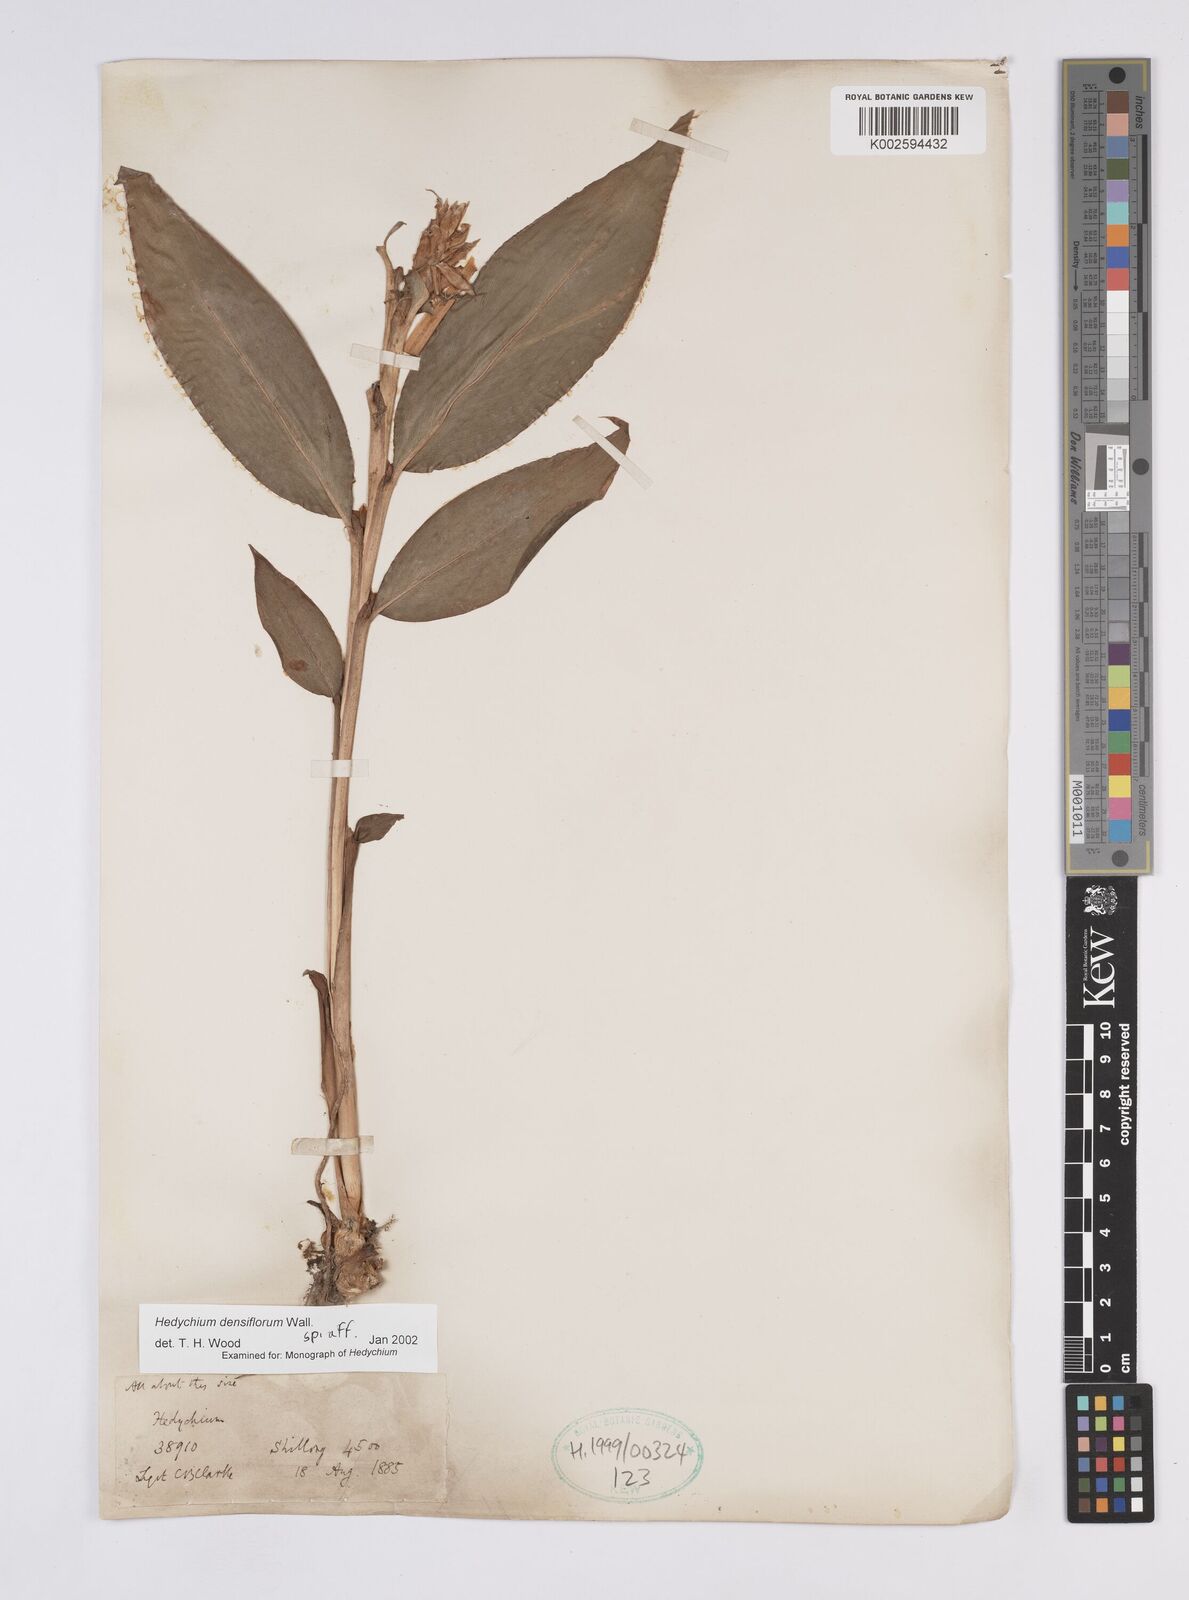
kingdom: Plantae
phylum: Tracheophyta
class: Liliopsida
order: Zingiberales
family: Zingiberaceae
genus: Hedychium
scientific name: Hedychium densiflorum
